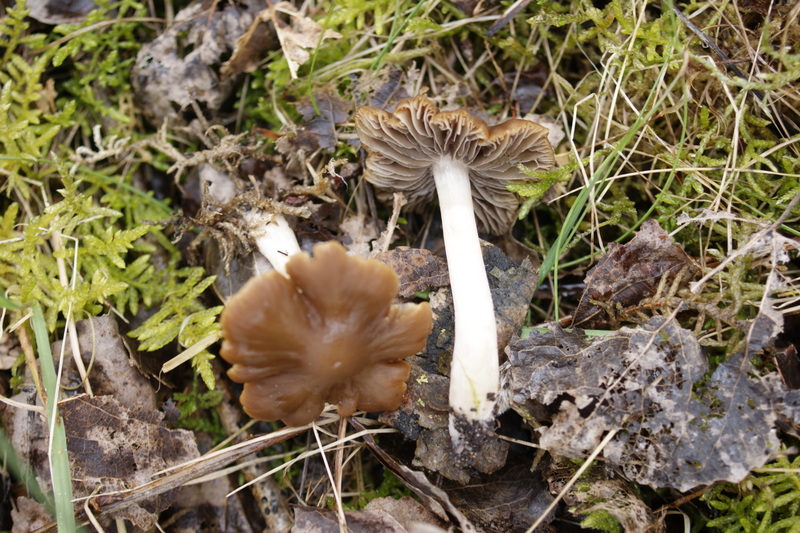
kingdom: Fungi
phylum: Basidiomycota
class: Agaricomycetes
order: Agaricales
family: Psathyrellaceae
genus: Psathyrella
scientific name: Psathyrella spadiceogrisea
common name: gråbrun mørkhat
